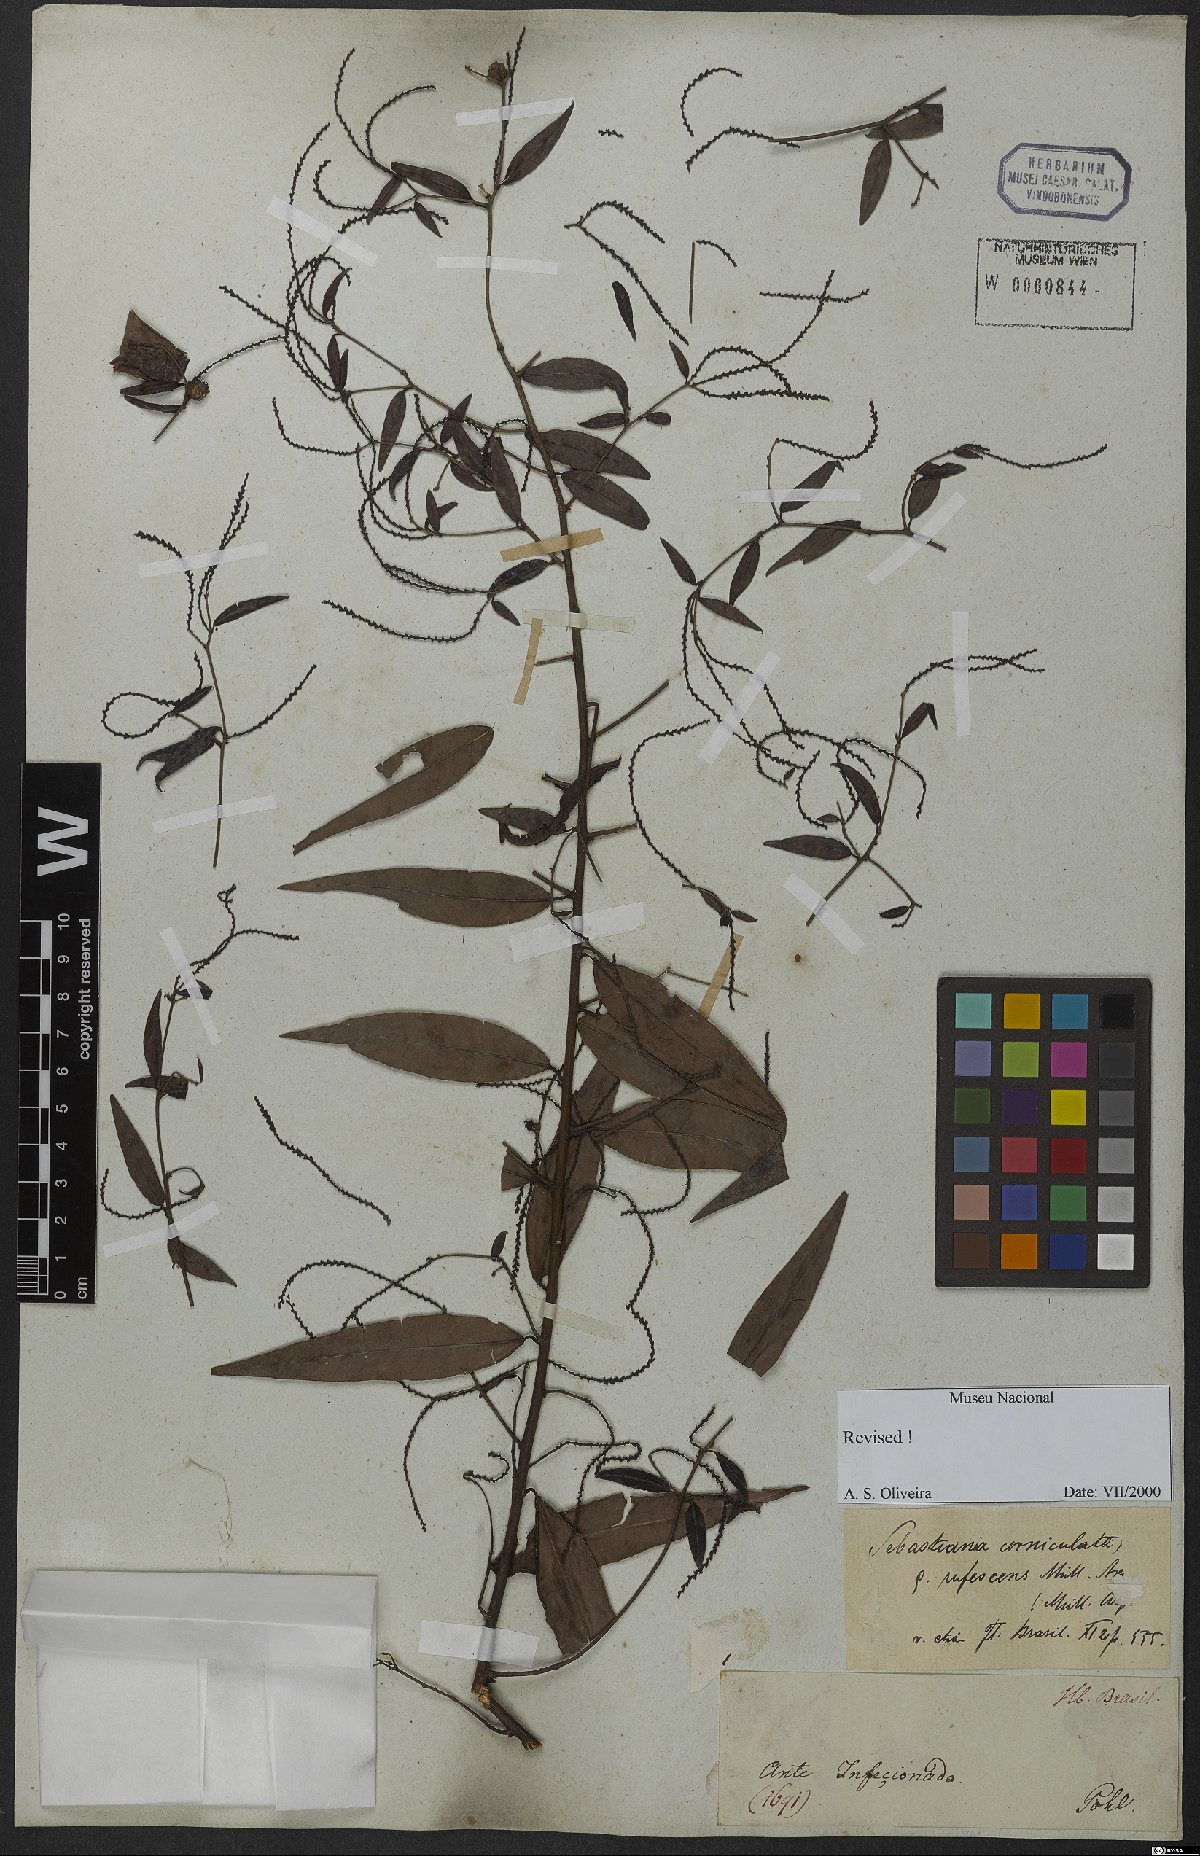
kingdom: Plantae
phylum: Tracheophyta
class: Magnoliopsida
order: Malpighiales
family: Euphorbiaceae
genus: Microstachys
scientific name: Microstachys hispida
